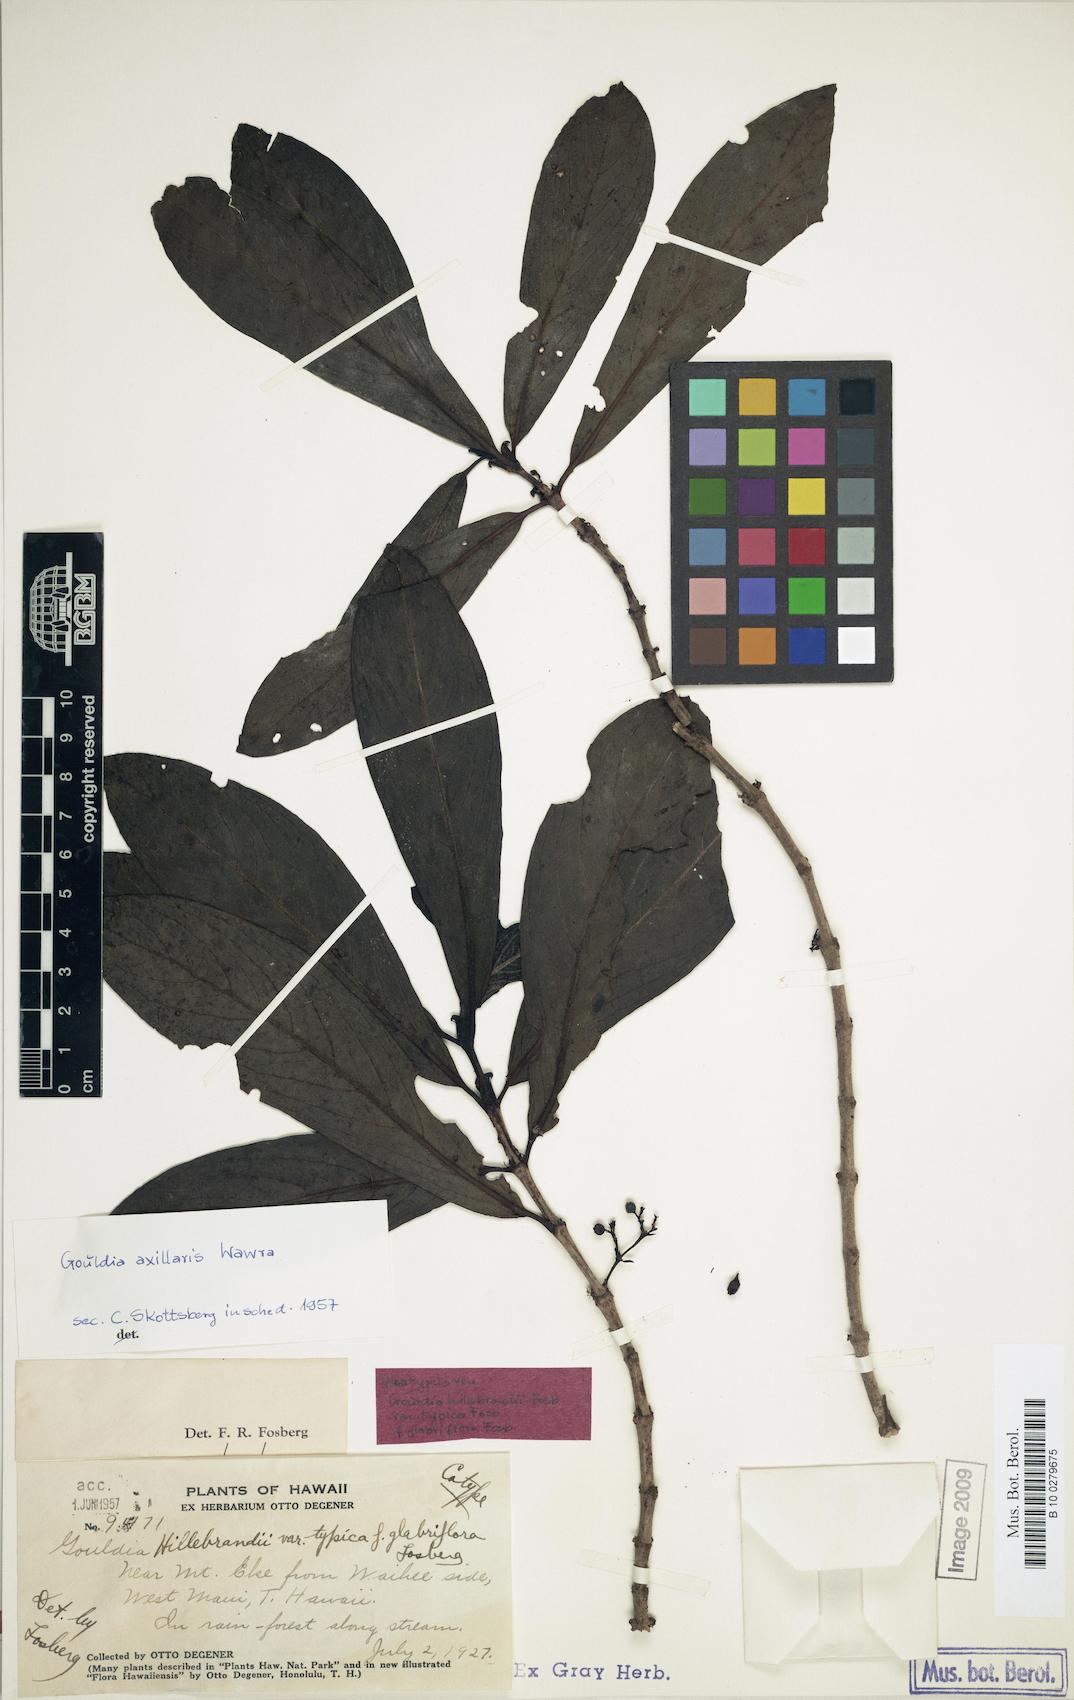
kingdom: Plantae
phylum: Tracheophyta
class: Magnoliopsida
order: Gentianales
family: Rubiaceae
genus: Kadua
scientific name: Kadua axillaris
